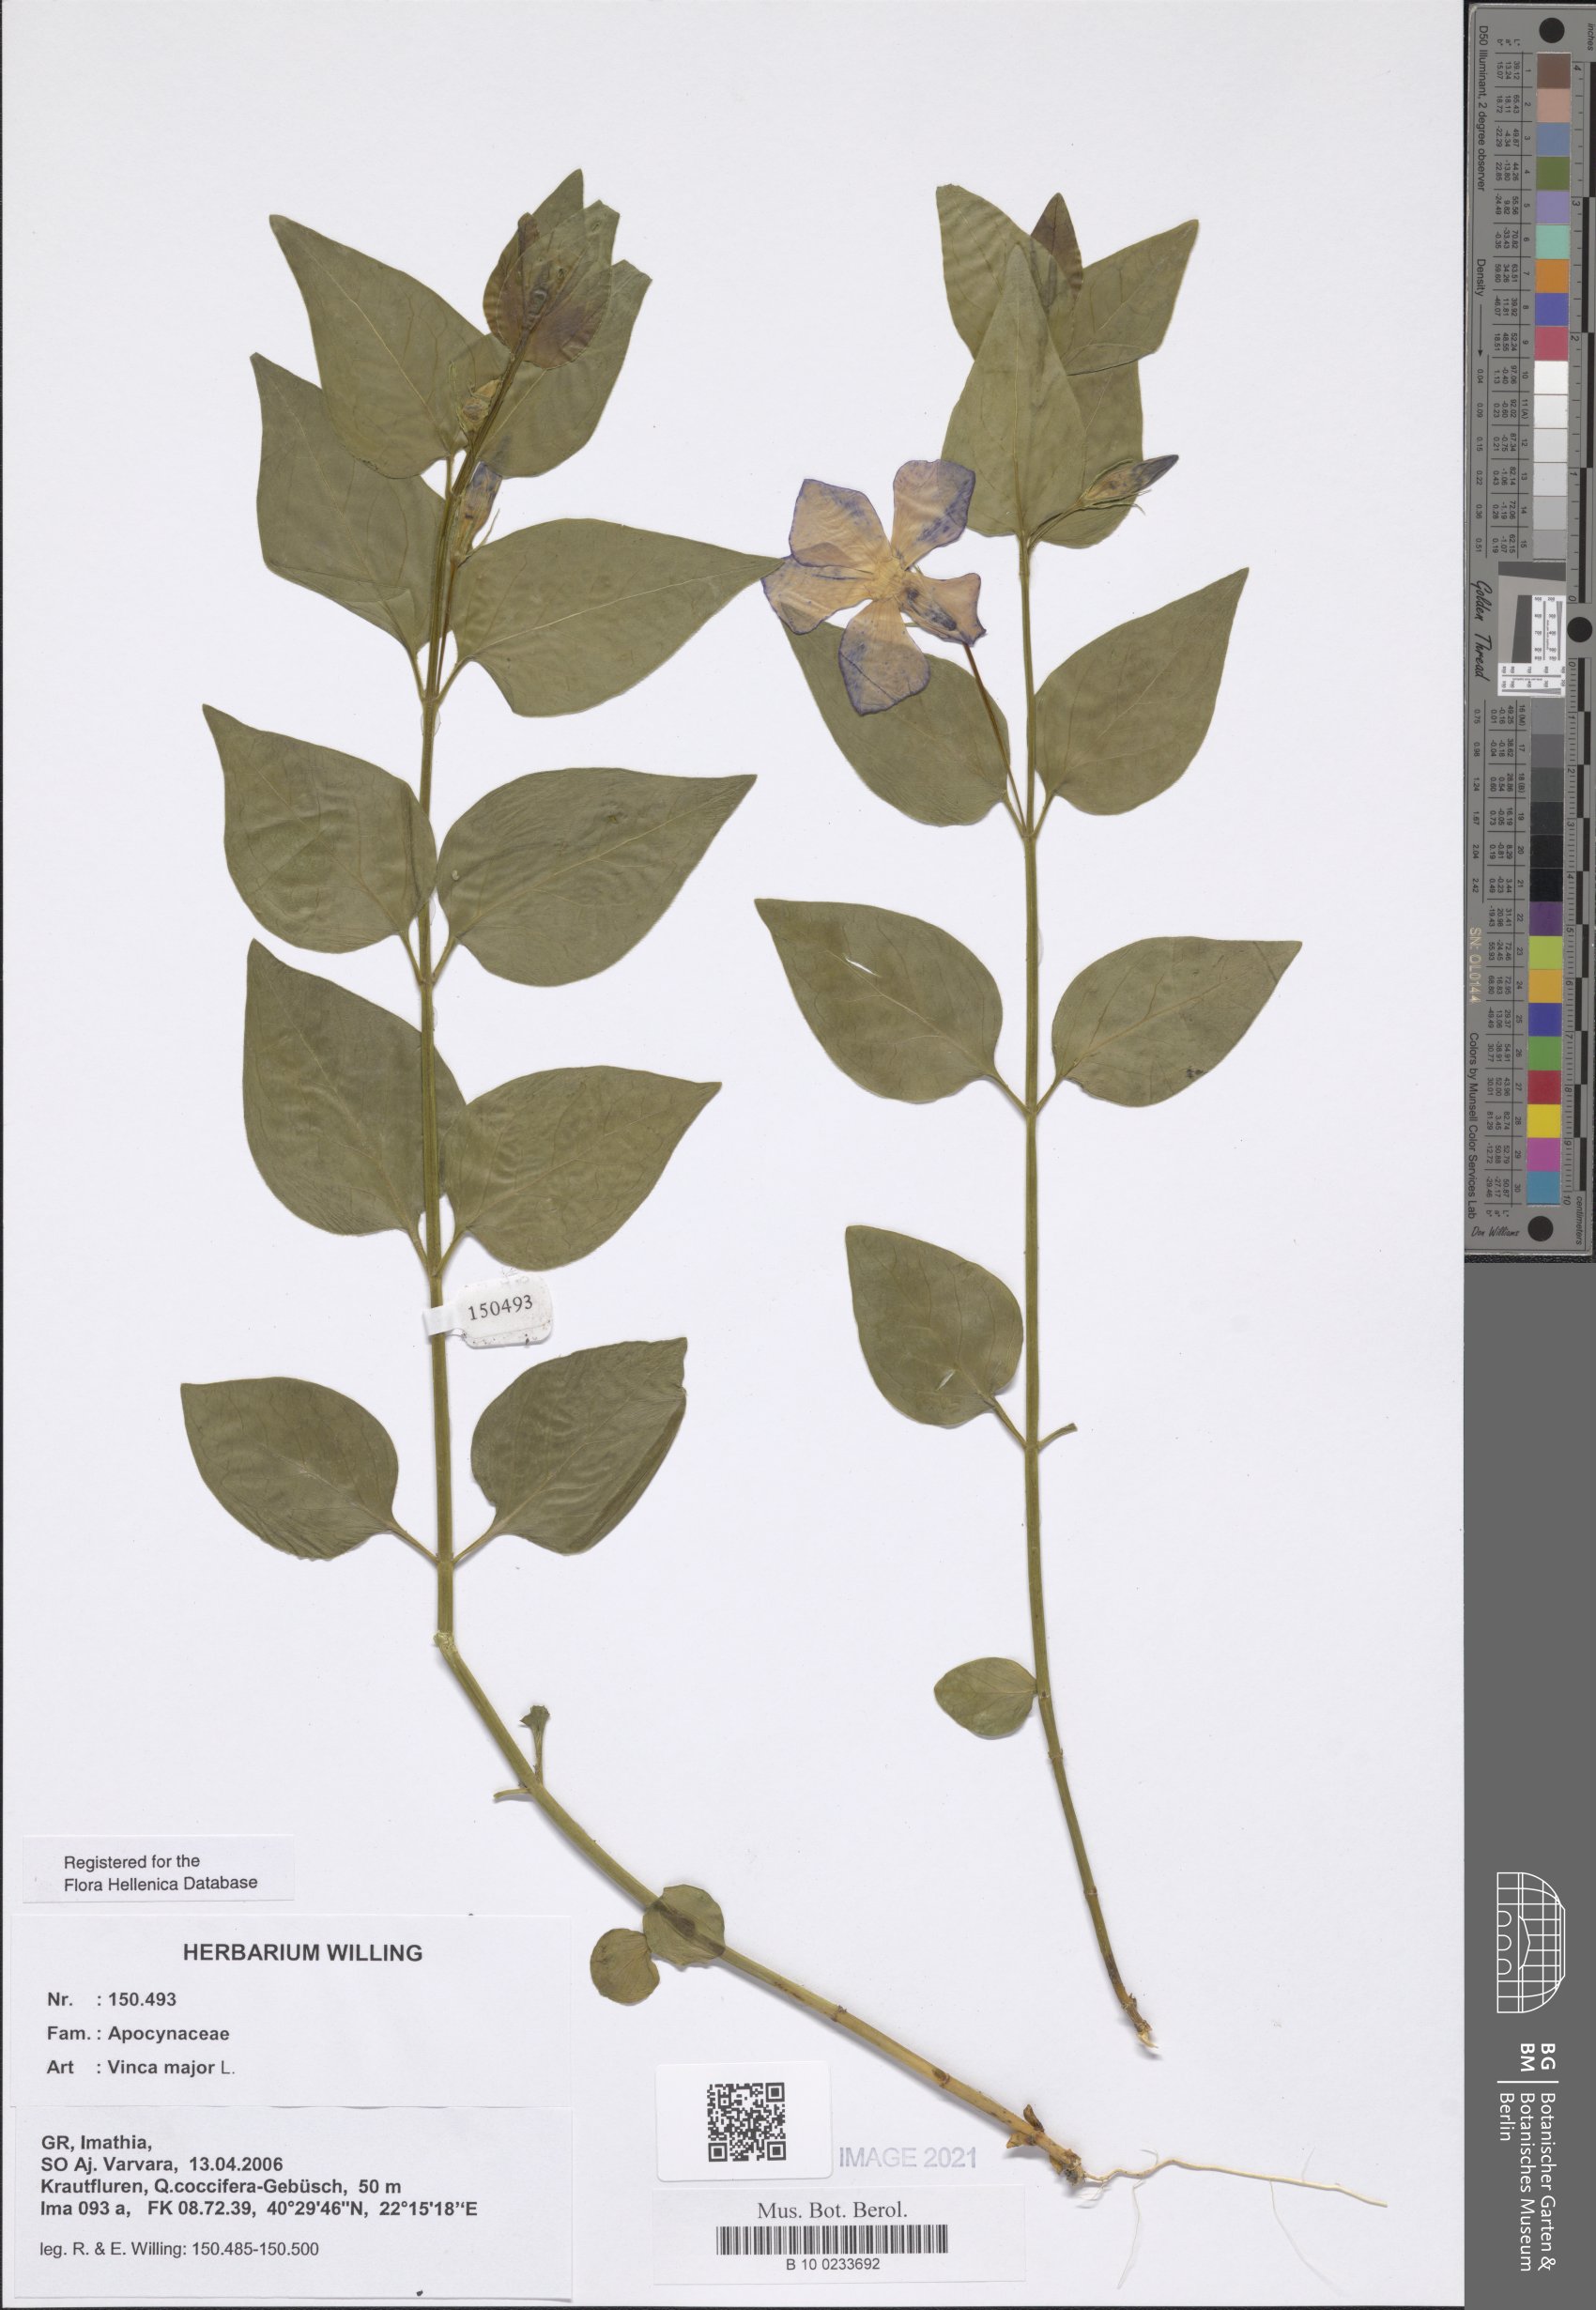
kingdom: Plantae
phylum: Tracheophyta
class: Magnoliopsida
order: Gentianales
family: Apocynaceae
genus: Vinca
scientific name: Vinca major
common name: Greater periwinkle
